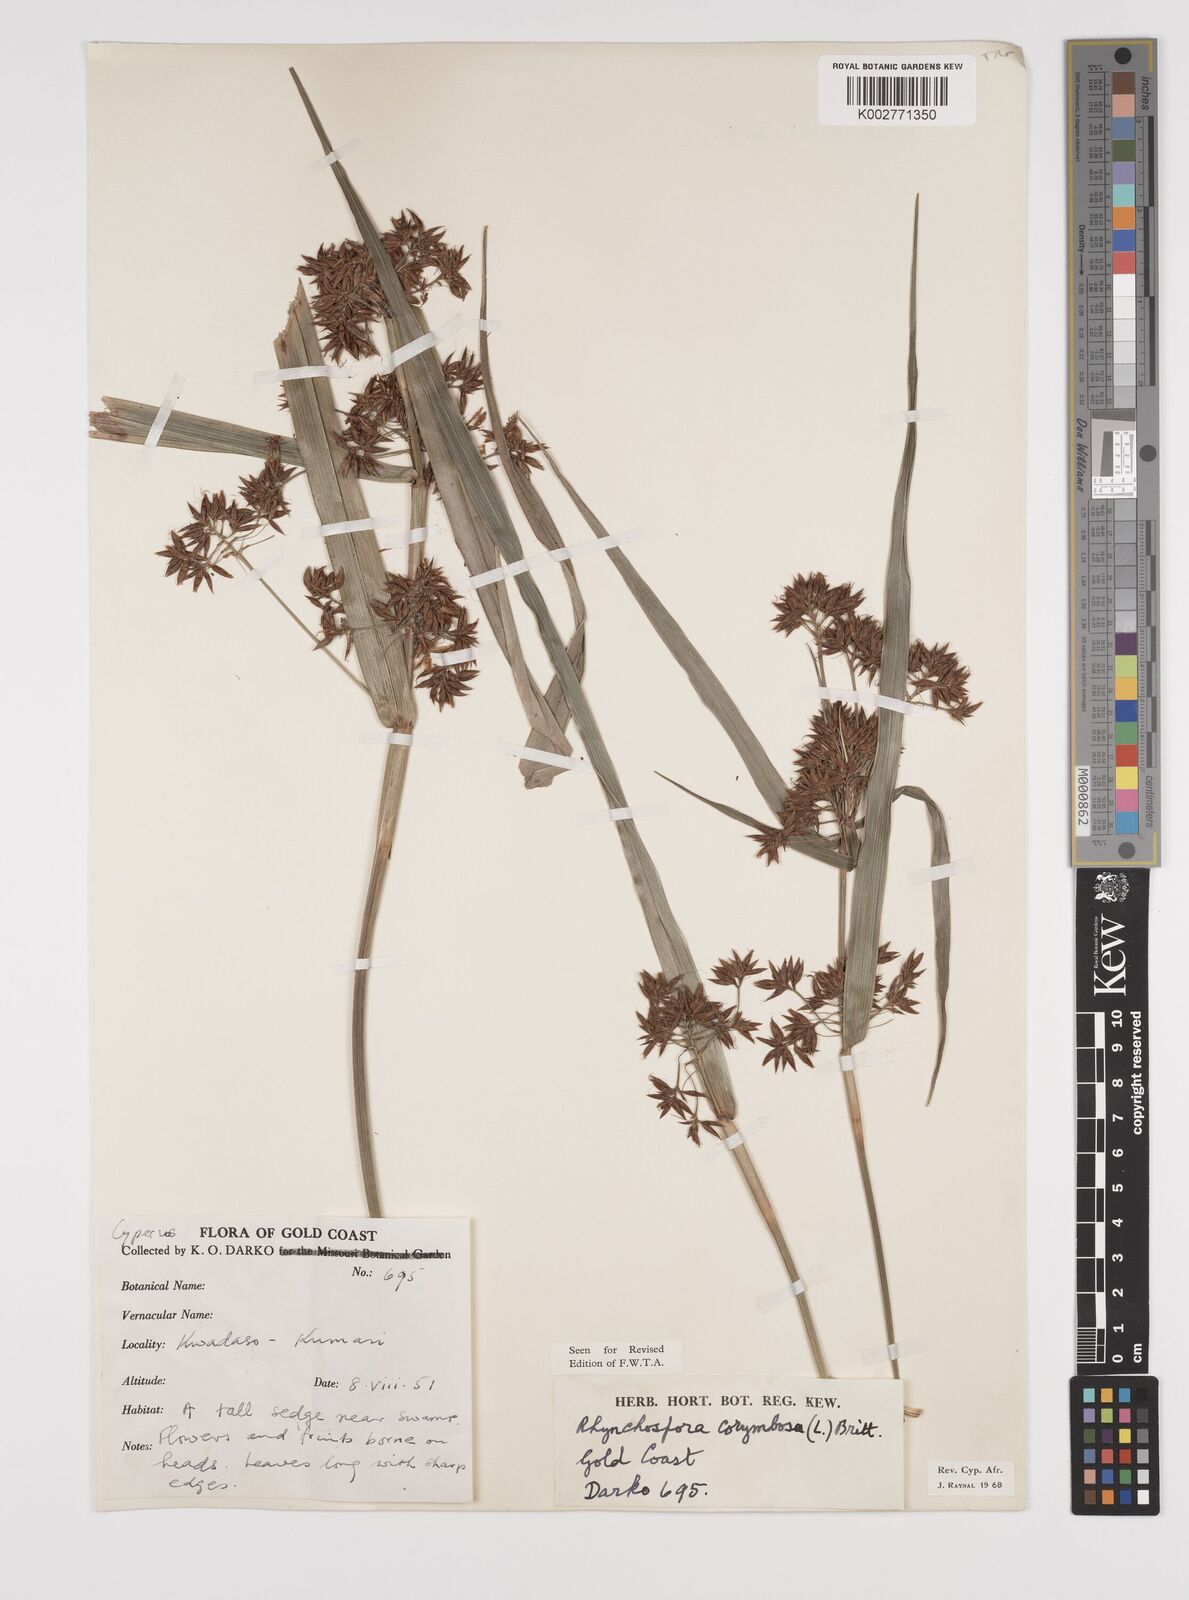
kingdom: Plantae
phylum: Tracheophyta
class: Liliopsida
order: Poales
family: Cyperaceae
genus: Rhynchospora
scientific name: Rhynchospora corymbosa
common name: Golden beak sedge
